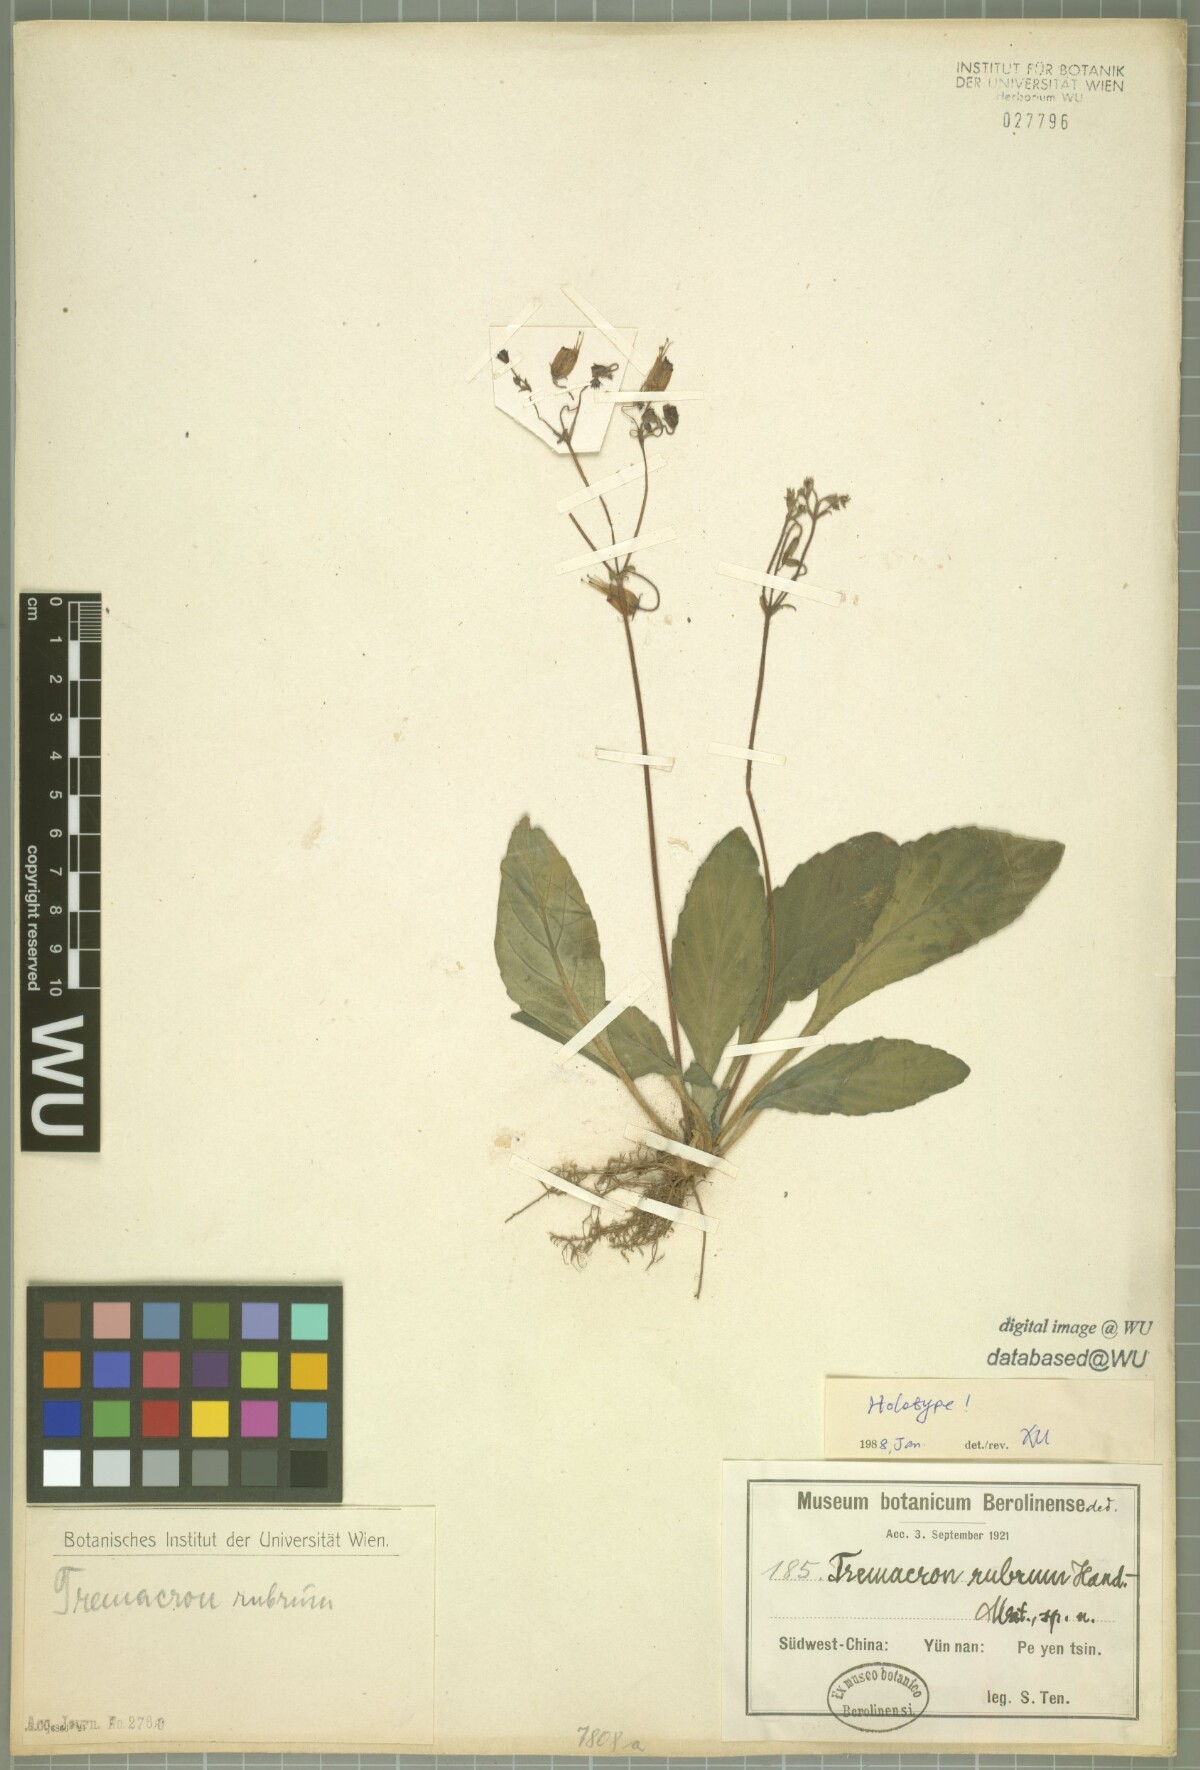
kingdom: Plantae
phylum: Tracheophyta
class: Magnoliopsida
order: Lamiales
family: Gesneriaceae
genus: Oreocharis
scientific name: Oreocharis rubra
